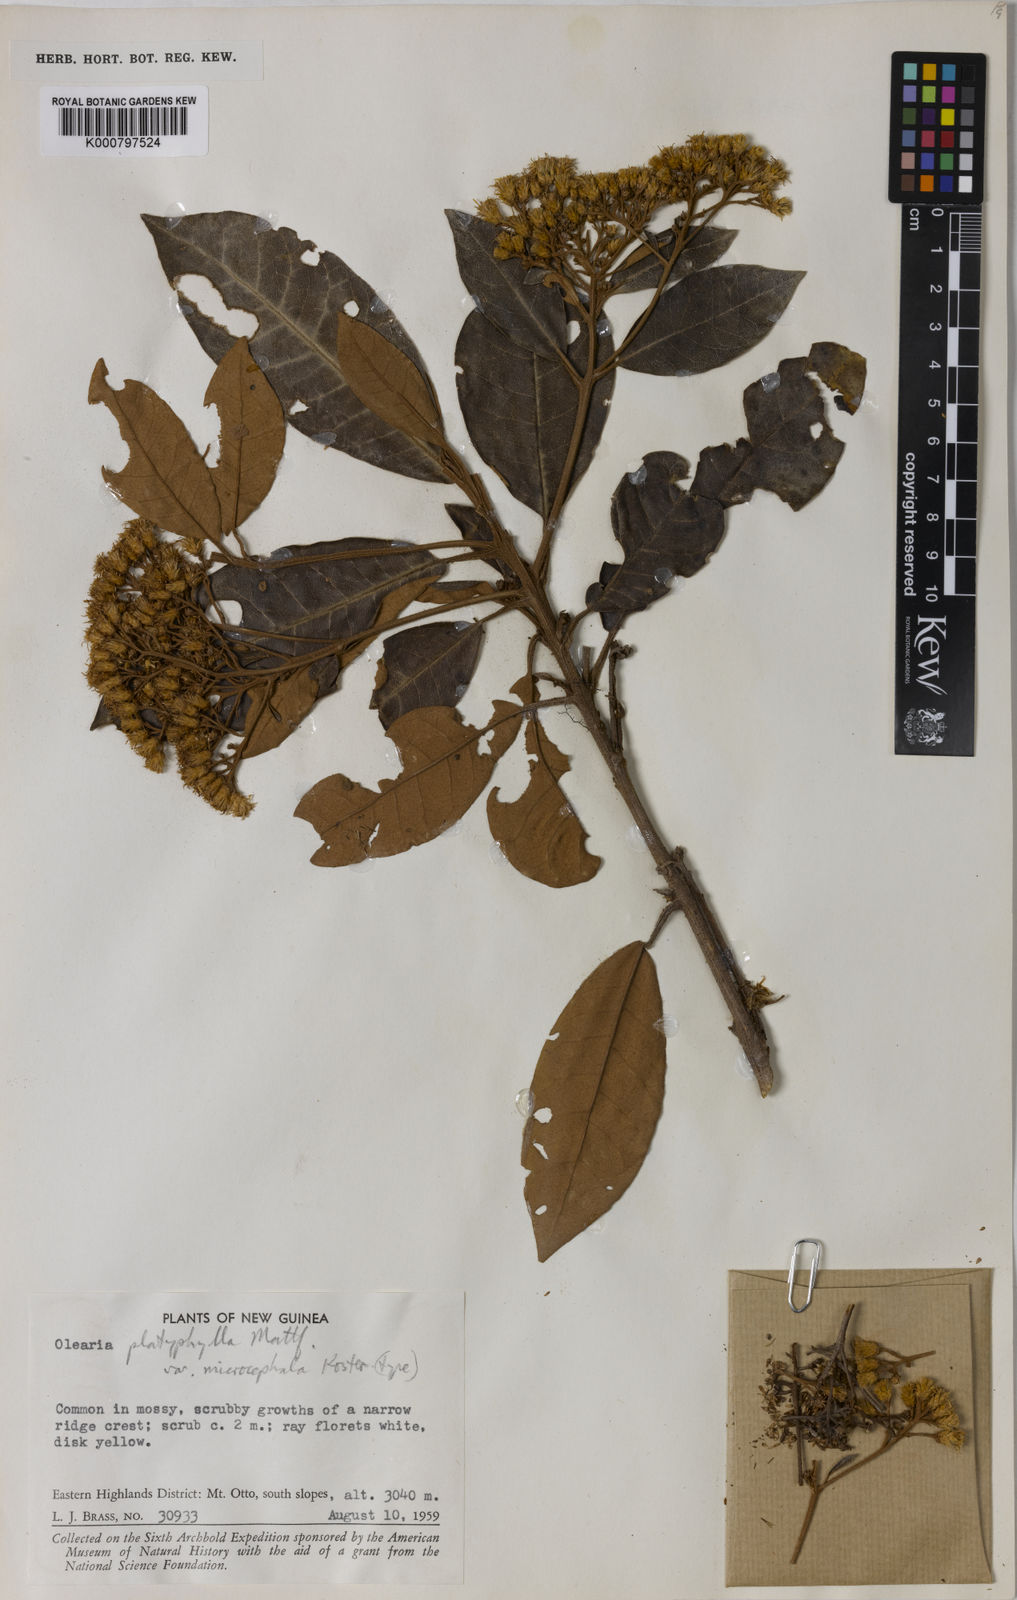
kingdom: Plantae
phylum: Tracheophyta
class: Magnoliopsida
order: Asterales
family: Asteraceae
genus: Olearia
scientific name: Olearia platyphylla
